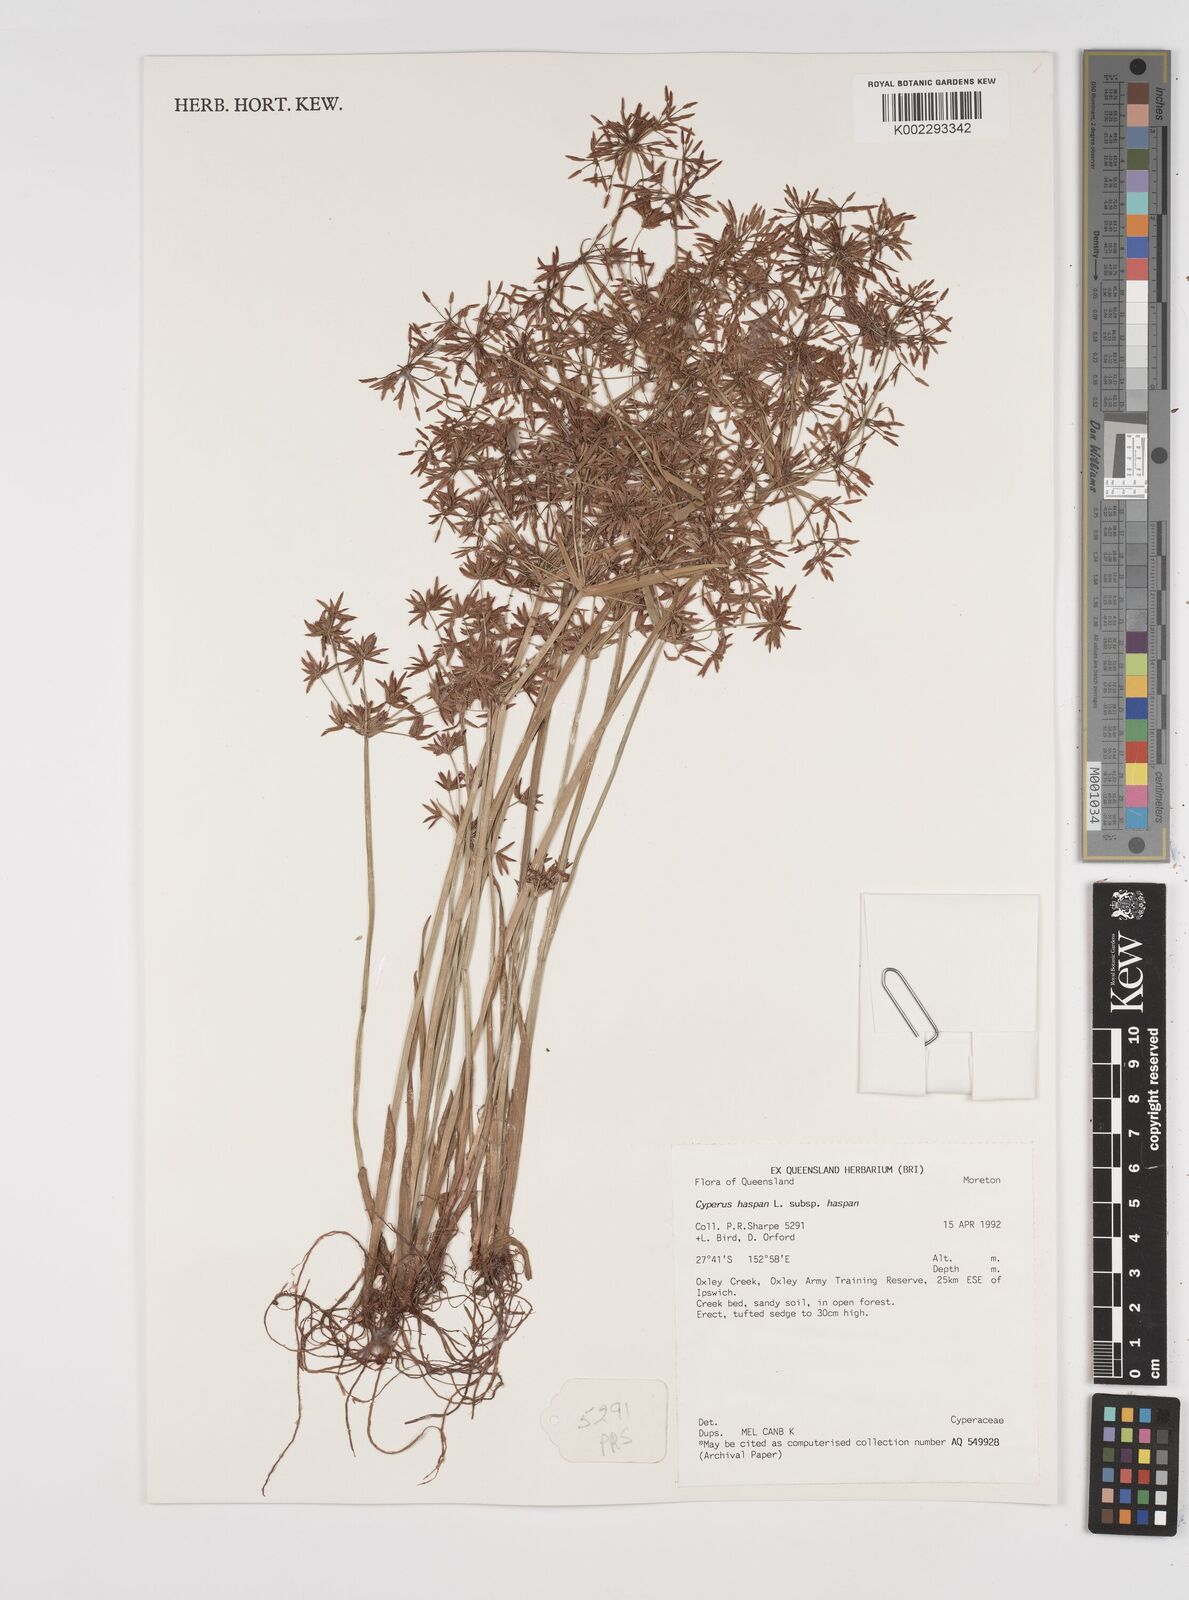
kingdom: Plantae
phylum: Tracheophyta
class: Liliopsida
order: Poales
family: Cyperaceae
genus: Cyperus
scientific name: Cyperus haspan
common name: Haspan flatsedge
